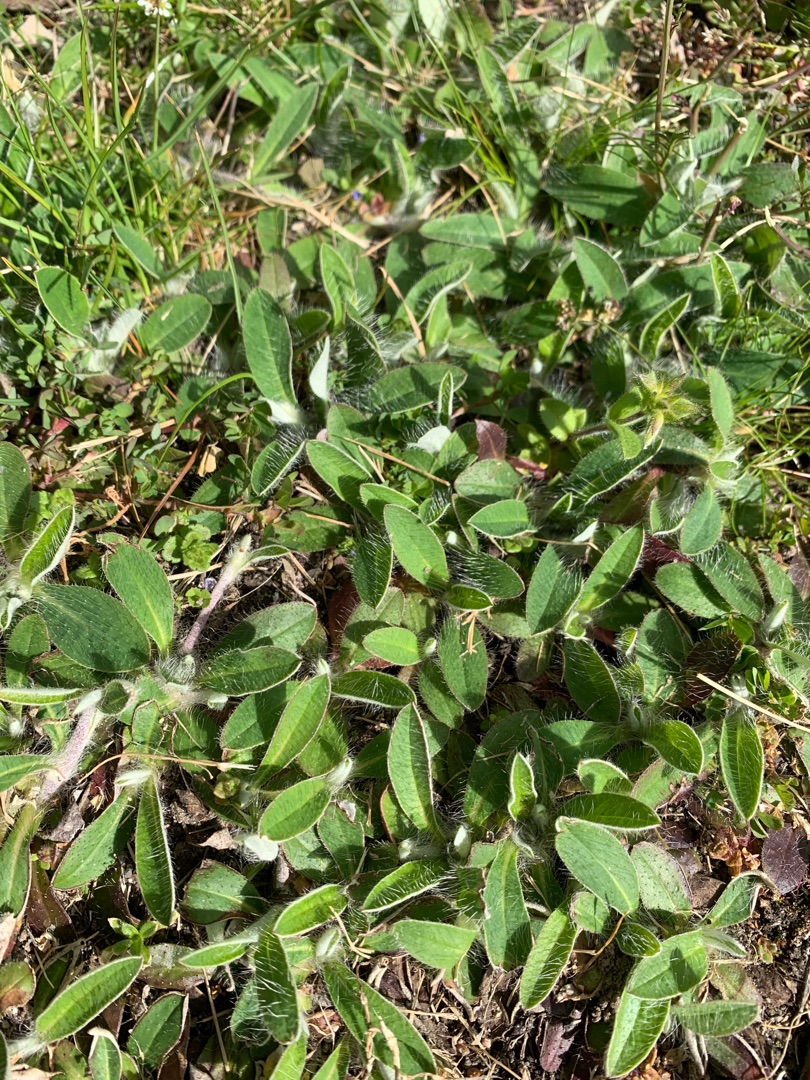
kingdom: Plantae
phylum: Tracheophyta
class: Magnoliopsida
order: Asterales
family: Asteraceae
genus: Pilosella
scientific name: Pilosella officinarum
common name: Håret høgeurt
